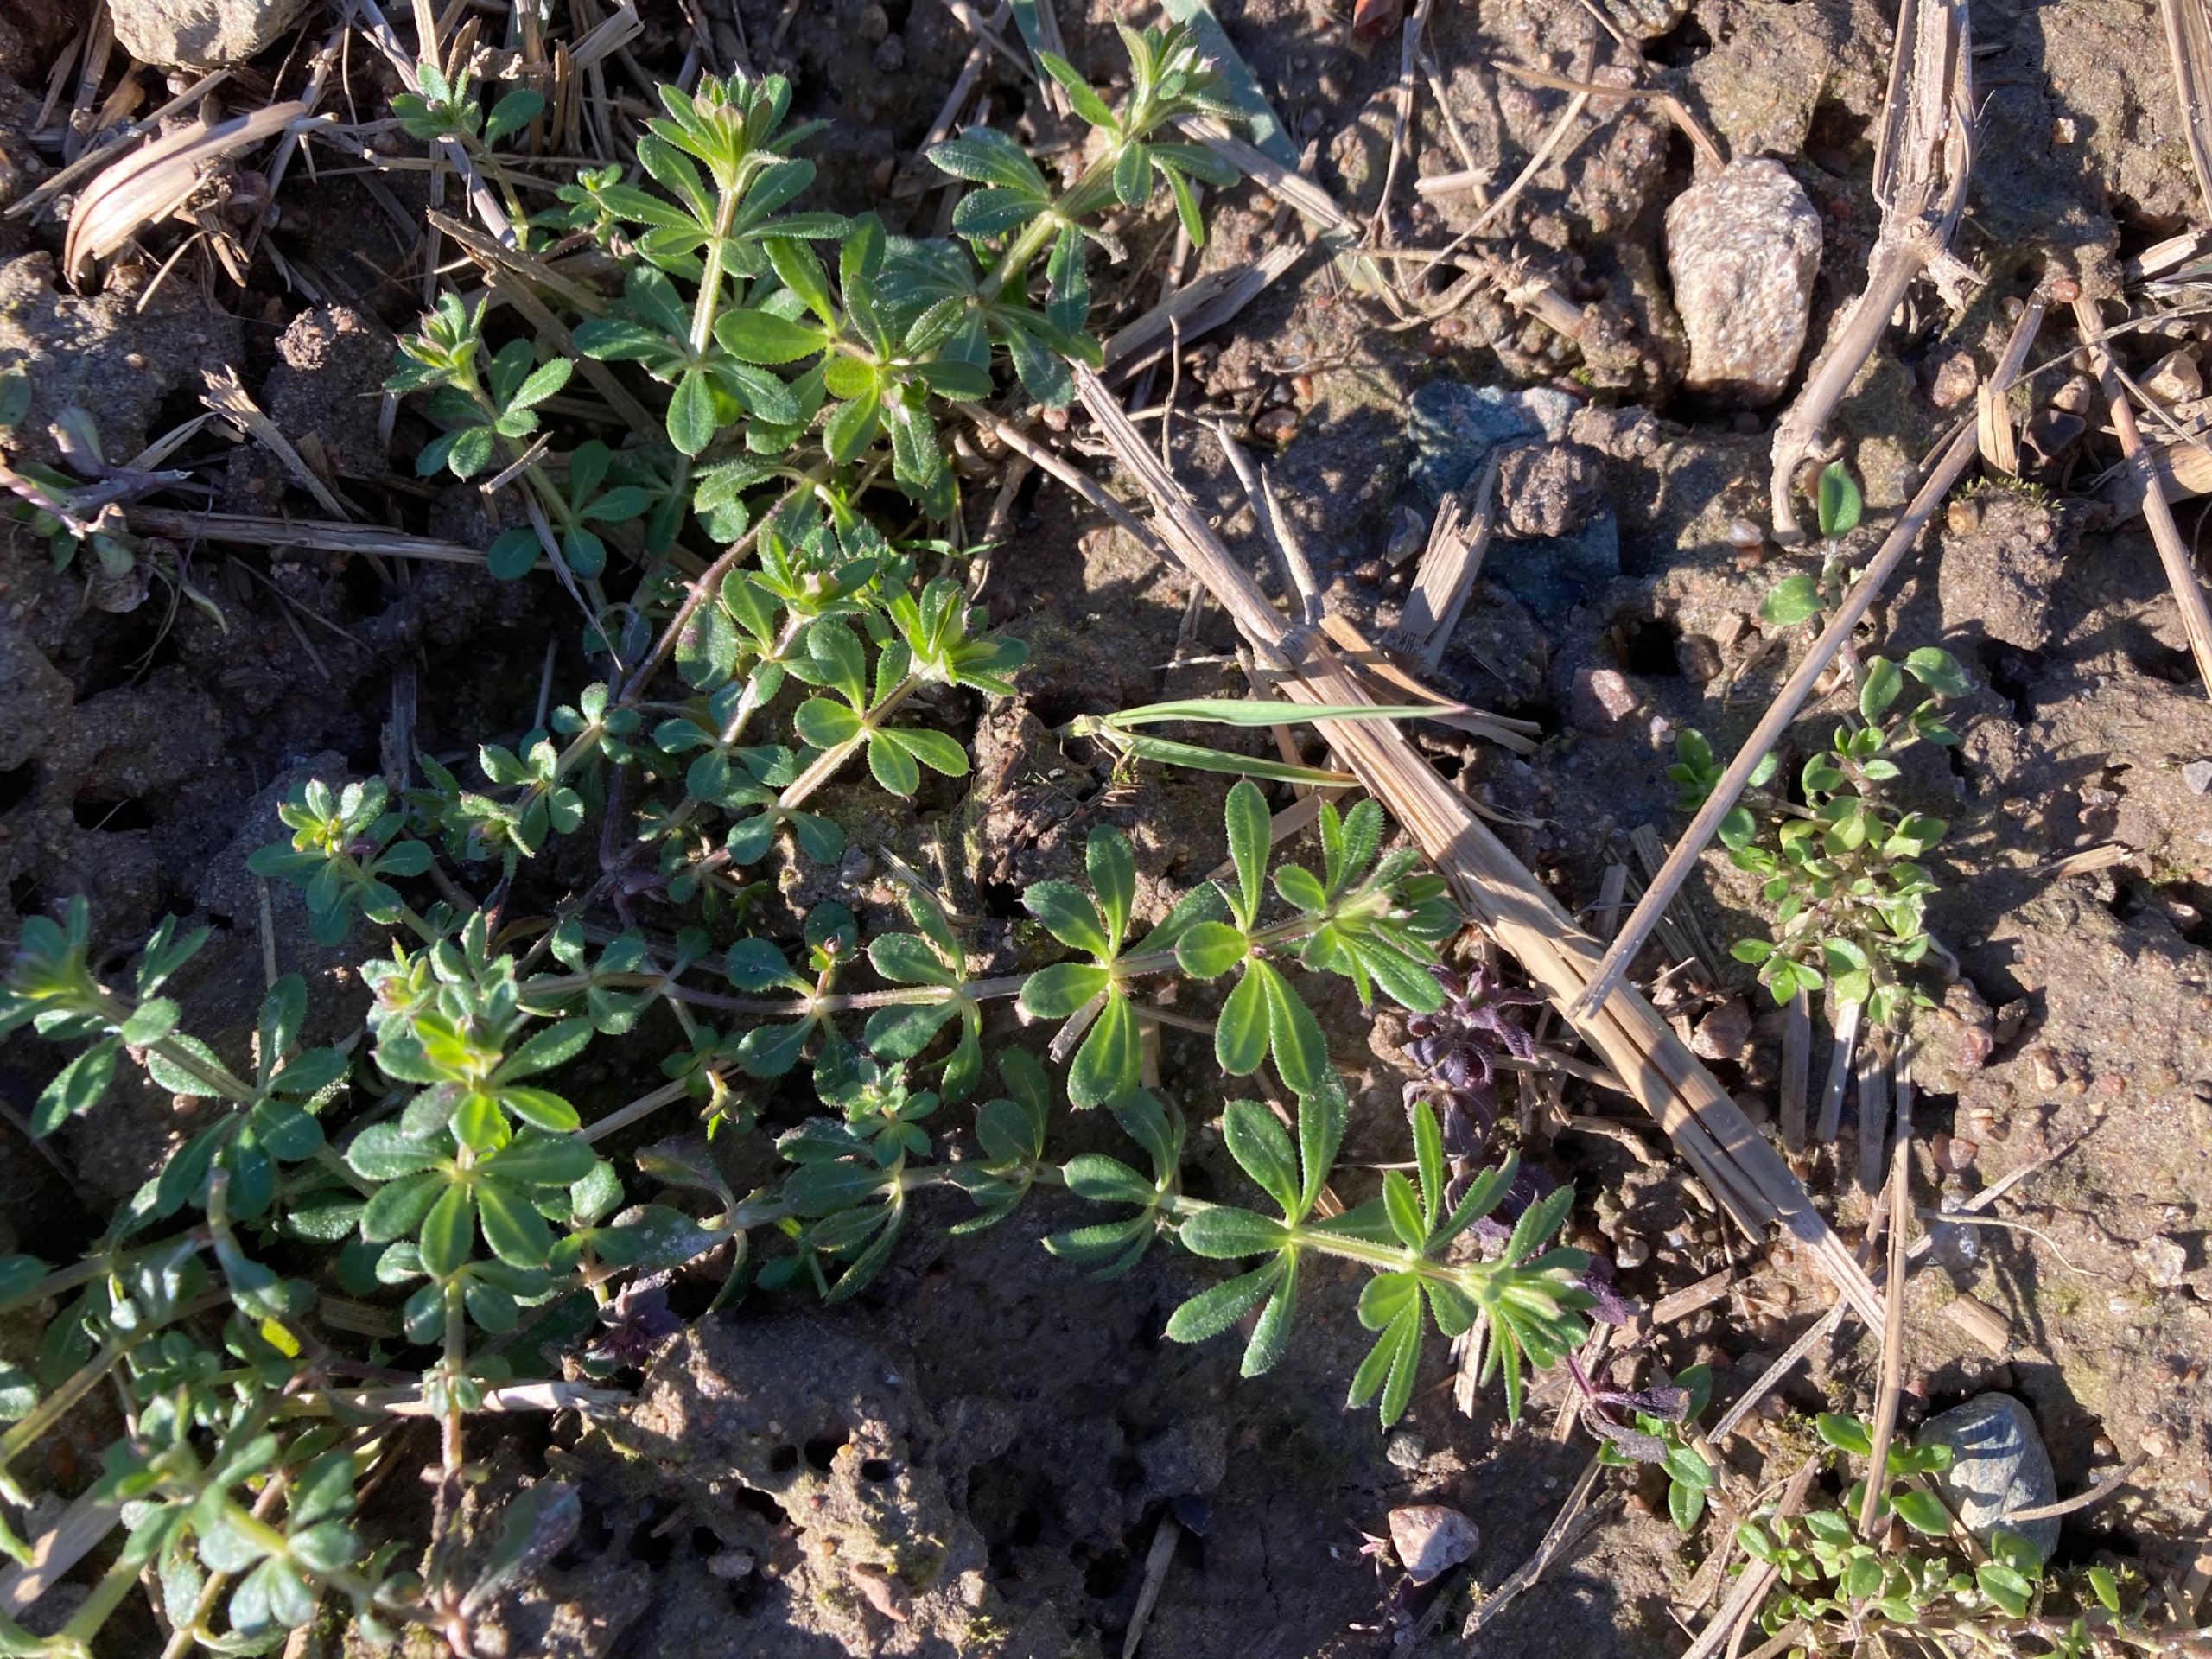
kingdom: Plantae
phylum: Tracheophyta
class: Magnoliopsida
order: Gentianales
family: Rubiaceae
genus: Galium
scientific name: Galium aparine
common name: Burre-snerre
